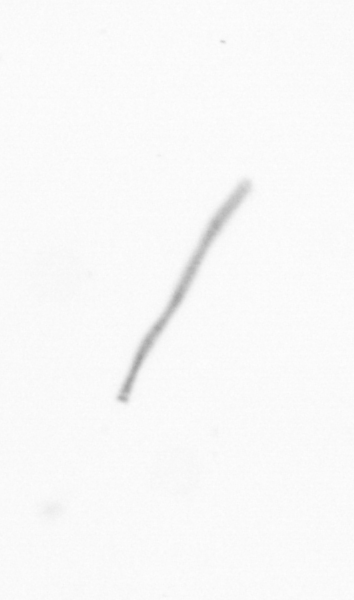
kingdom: Chromista
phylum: Ochrophyta
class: Bacillariophyceae
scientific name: Bacillariophyceae
